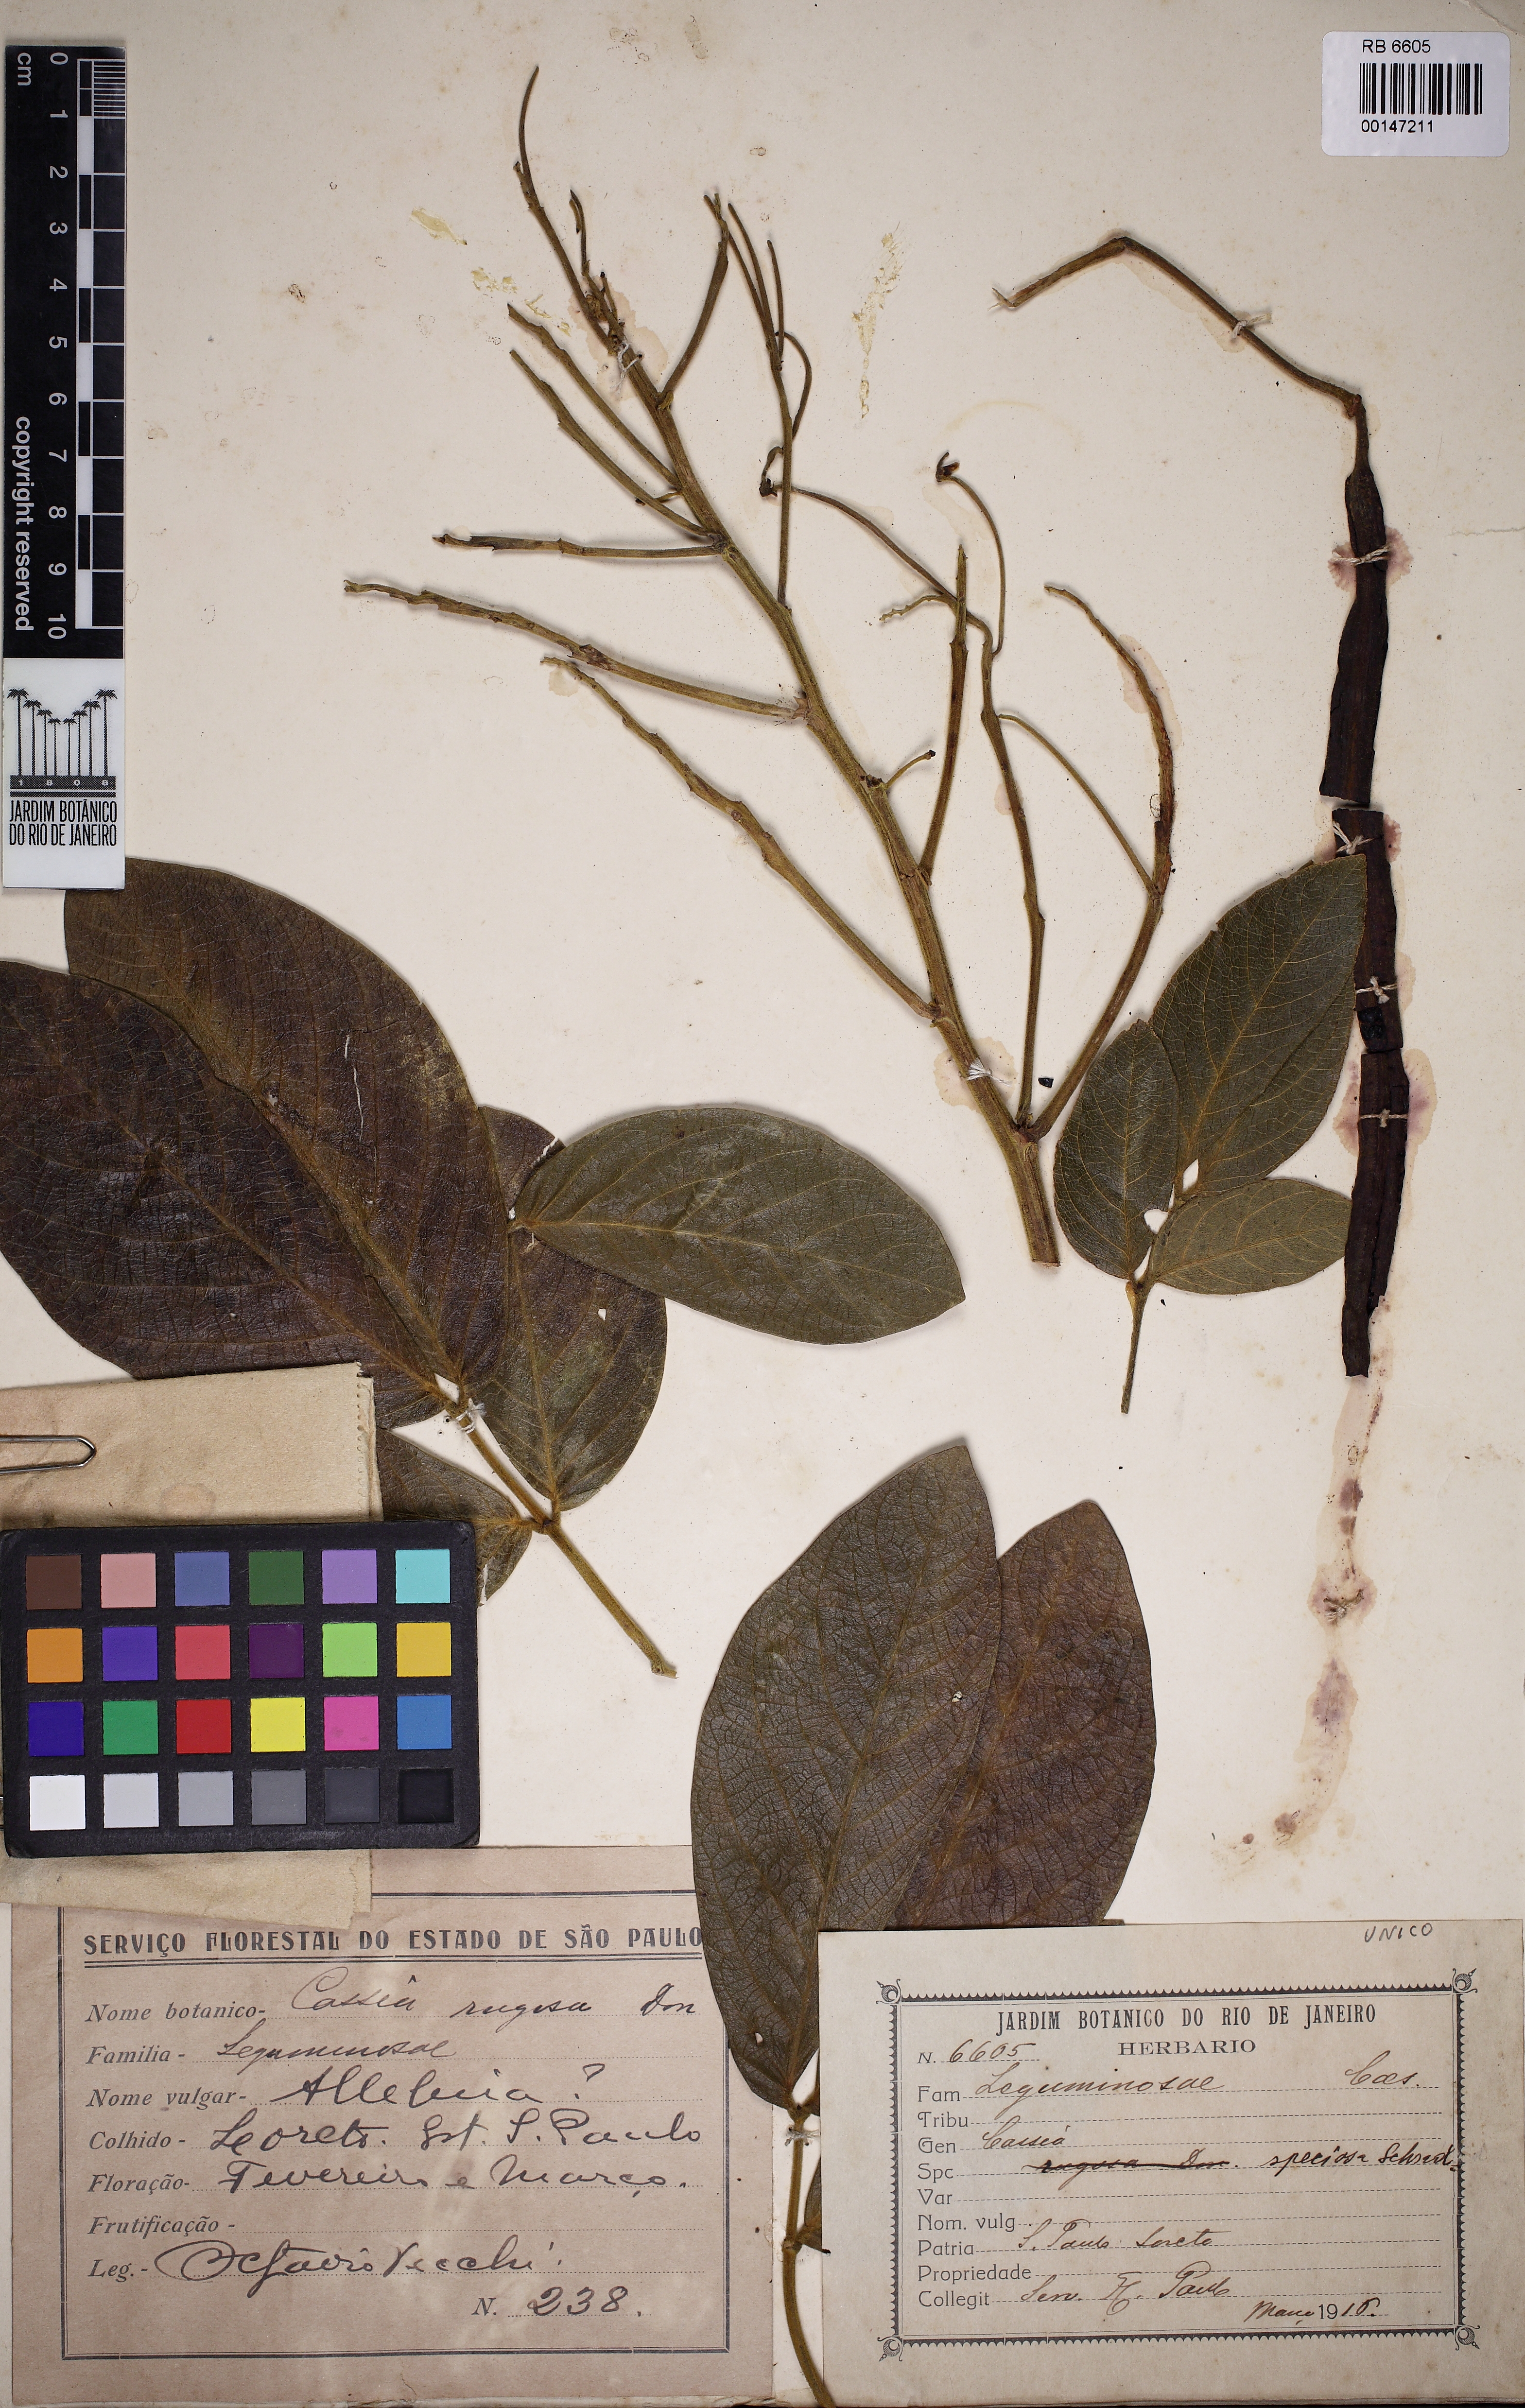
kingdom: Plantae
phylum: Tracheophyta
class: Magnoliopsida
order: Fabales
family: Fabaceae
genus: Senna
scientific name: Senna macranthera
